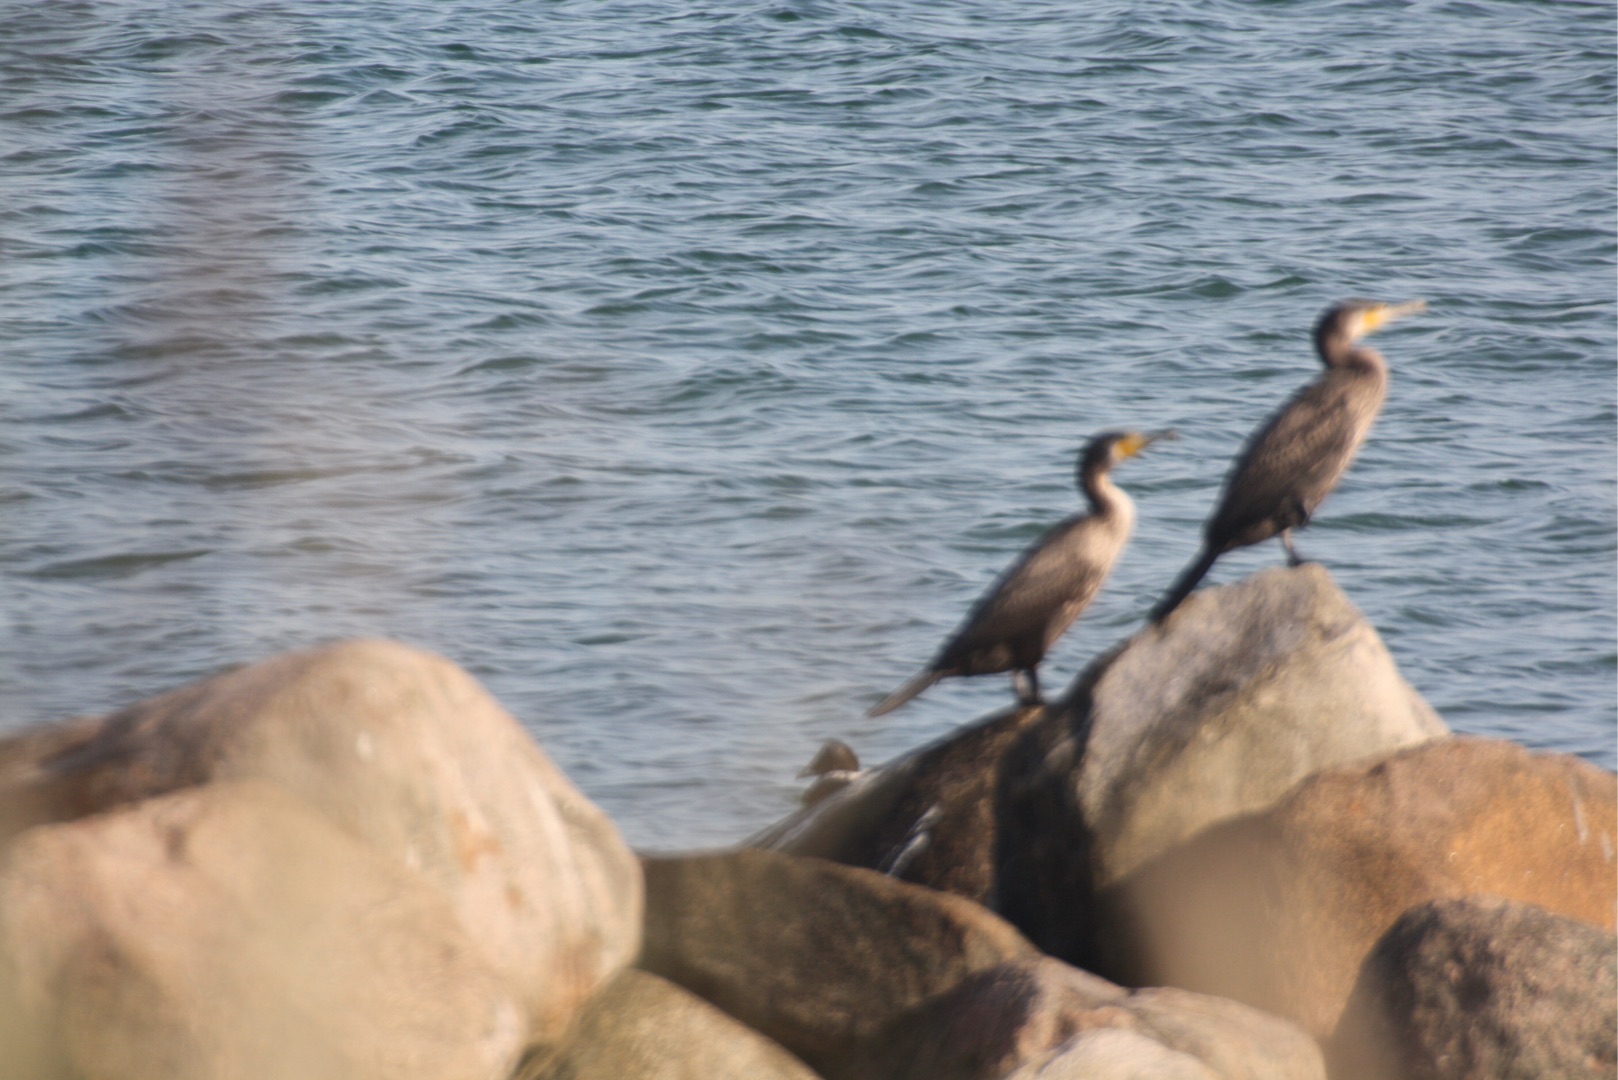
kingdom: Animalia
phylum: Chordata
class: Aves
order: Suliformes
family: Phalacrocoracidae
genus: Phalacrocorax
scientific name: Phalacrocorax carbo
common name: Skarv
